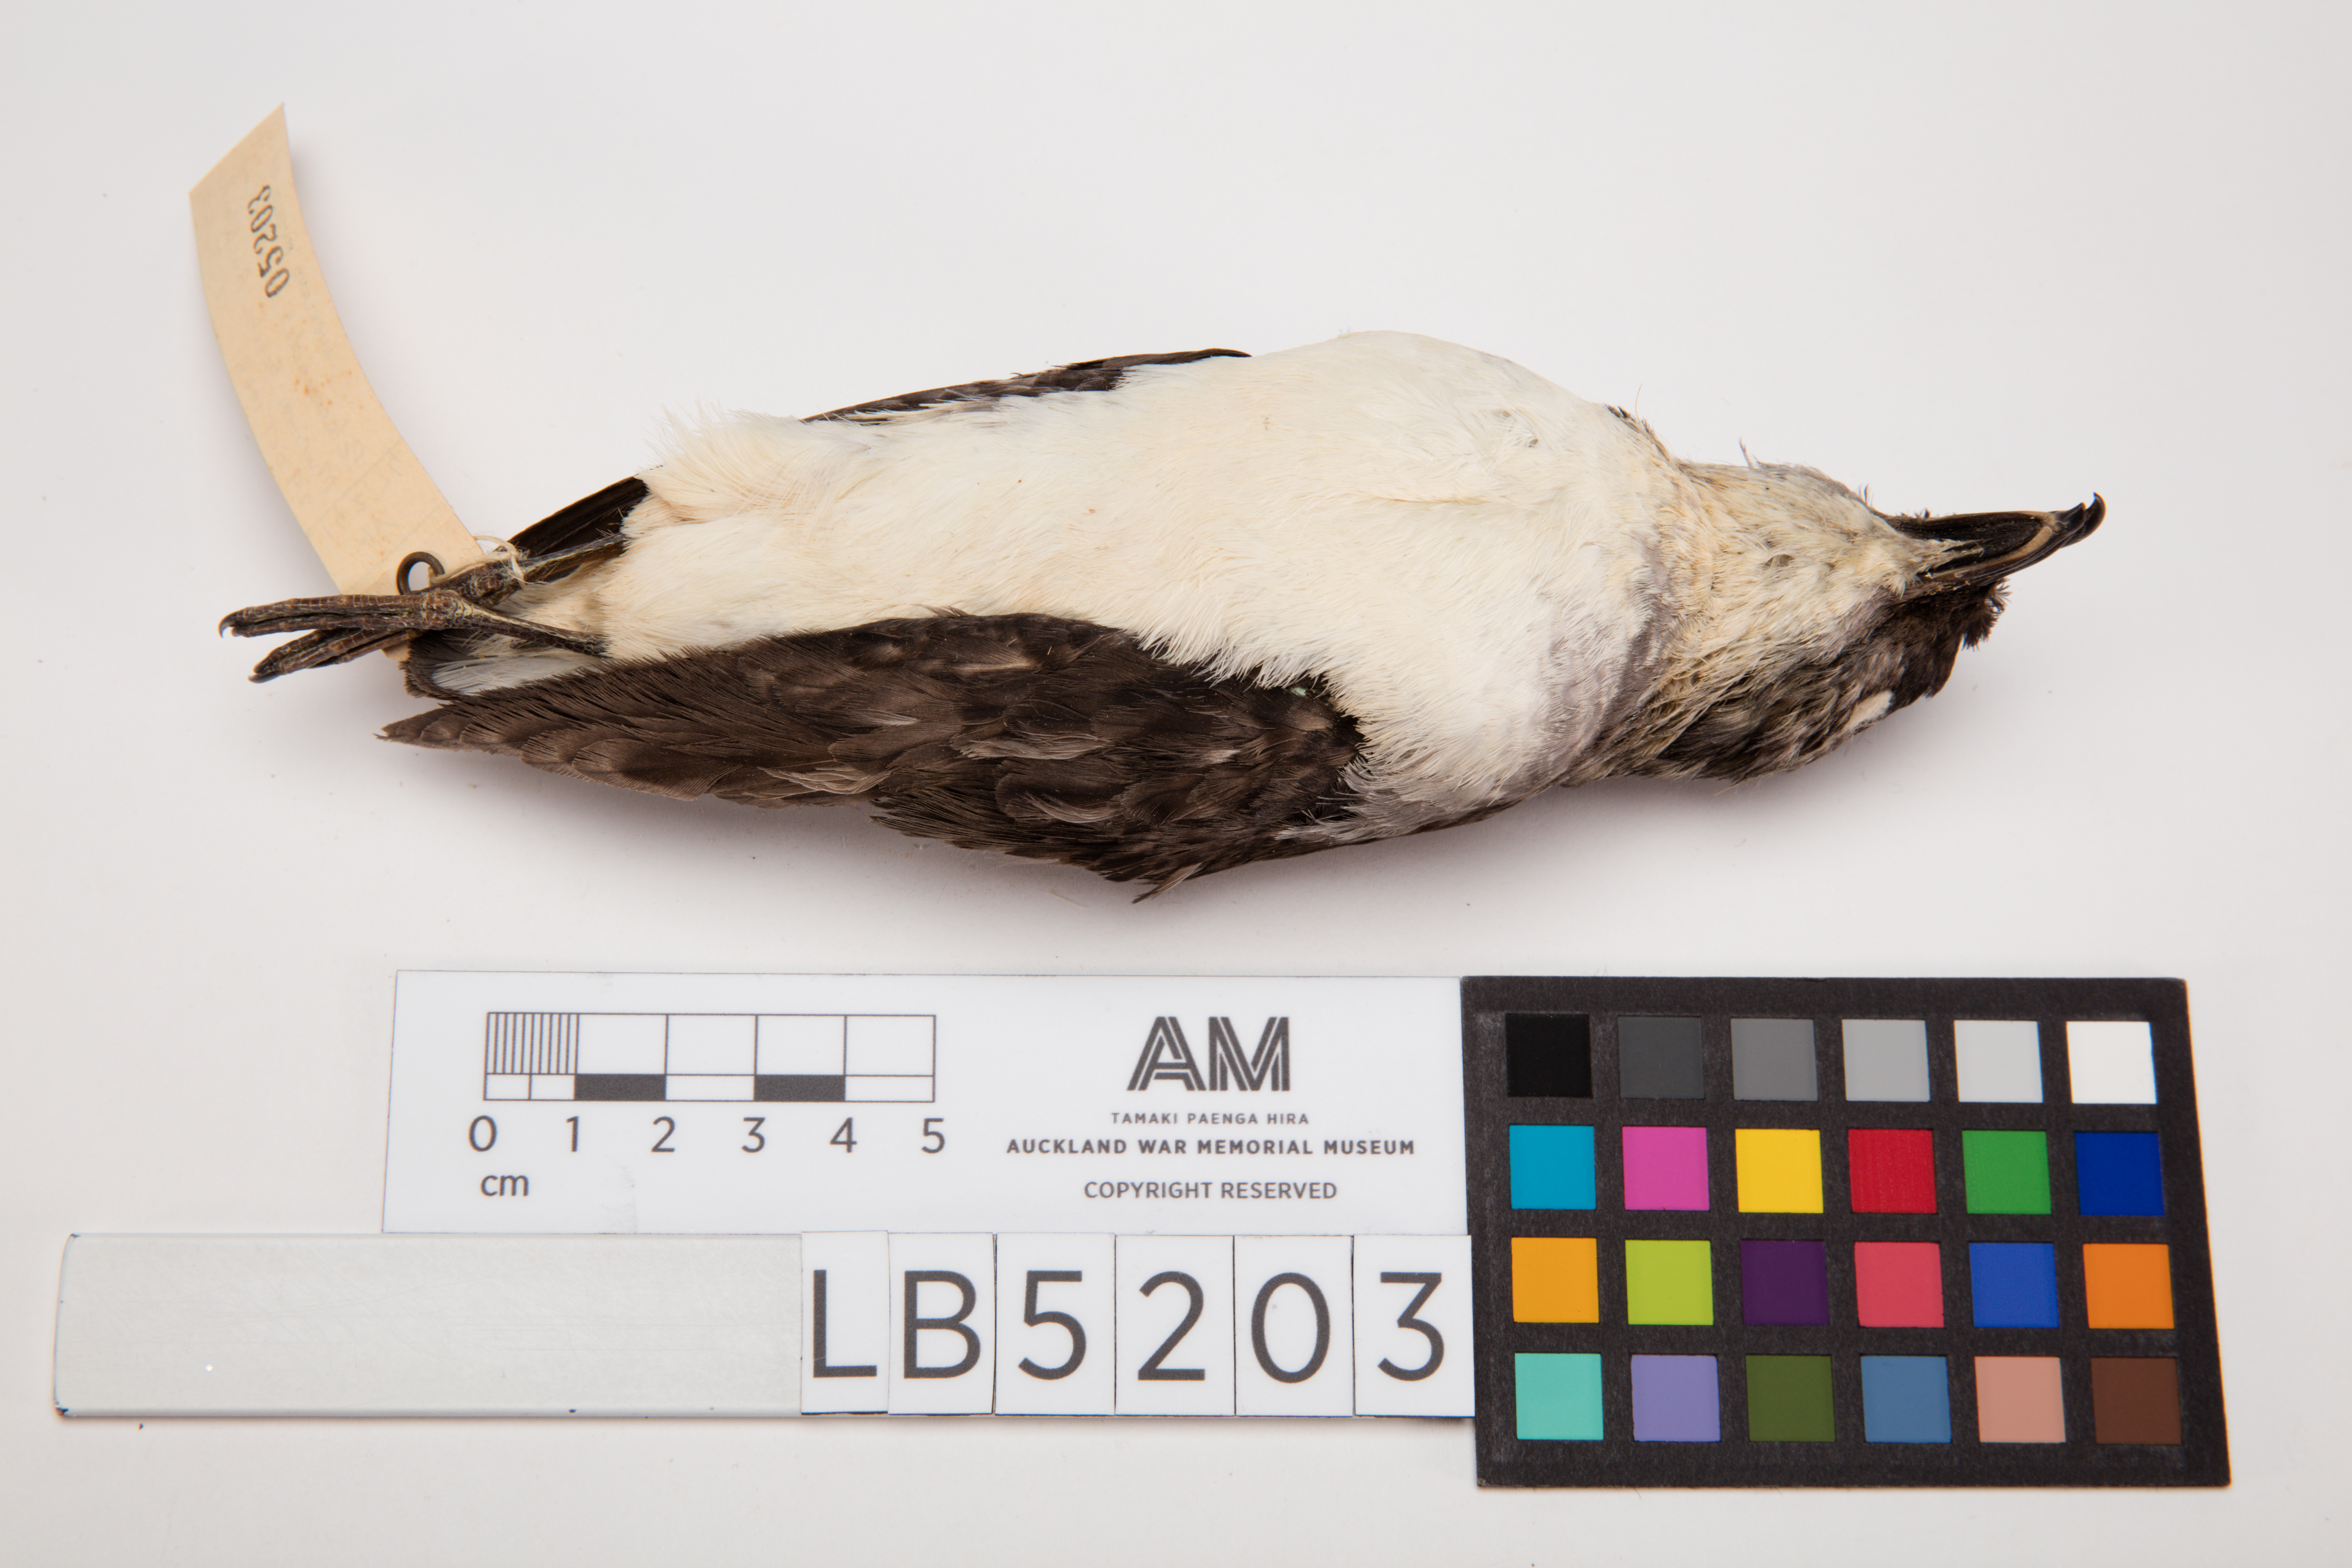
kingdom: Animalia
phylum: Chordata
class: Aves
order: Procellariiformes
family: Pelecanoididae
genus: Pelecanoides
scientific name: Pelecanoides urinatrix
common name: Common diving-petrel
